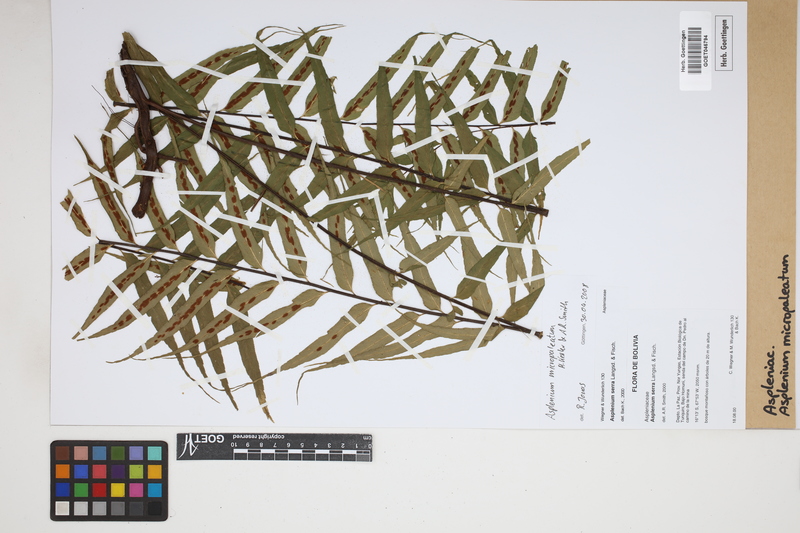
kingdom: Plantae
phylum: Tracheophyta
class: Polypodiopsida
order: Polypodiales
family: Aspleniaceae
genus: Asplenium
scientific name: Asplenium micropaleatum
